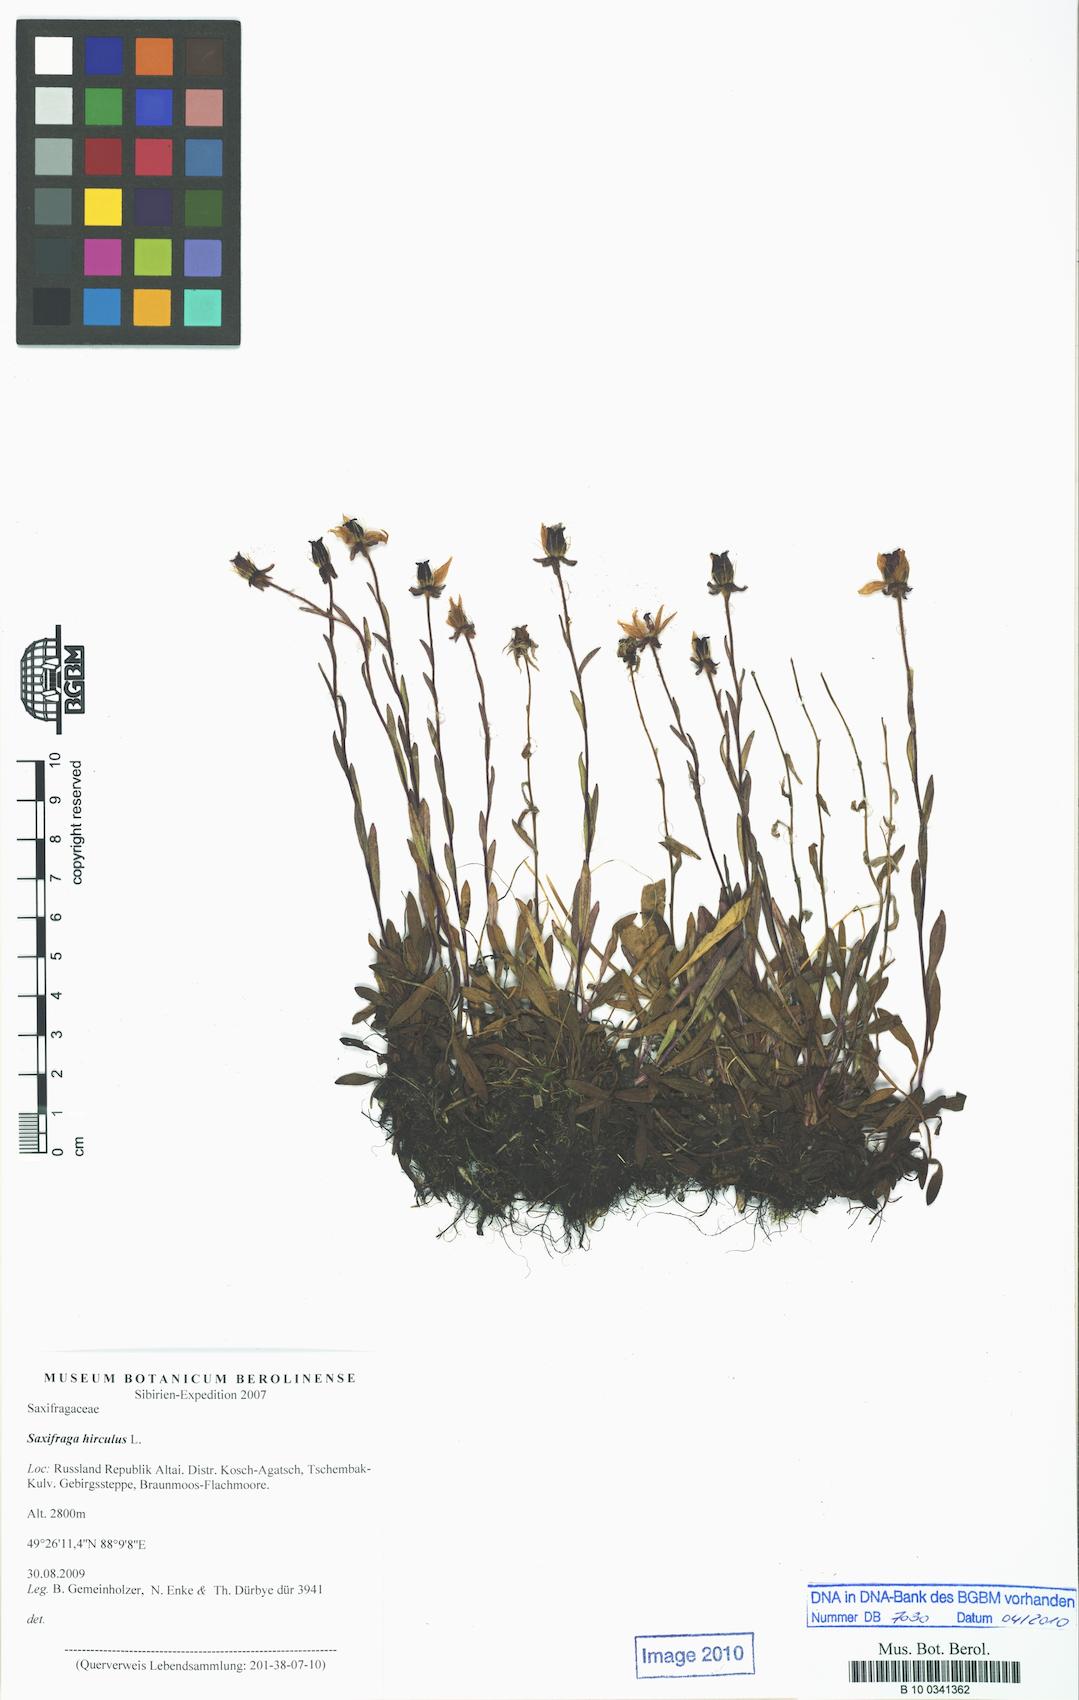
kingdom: Plantae
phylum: Tracheophyta
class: Magnoliopsida
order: Saxifragales
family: Saxifragaceae
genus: Saxifraga
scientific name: Saxifraga hirculus
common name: Yellow marsh saxifrage
